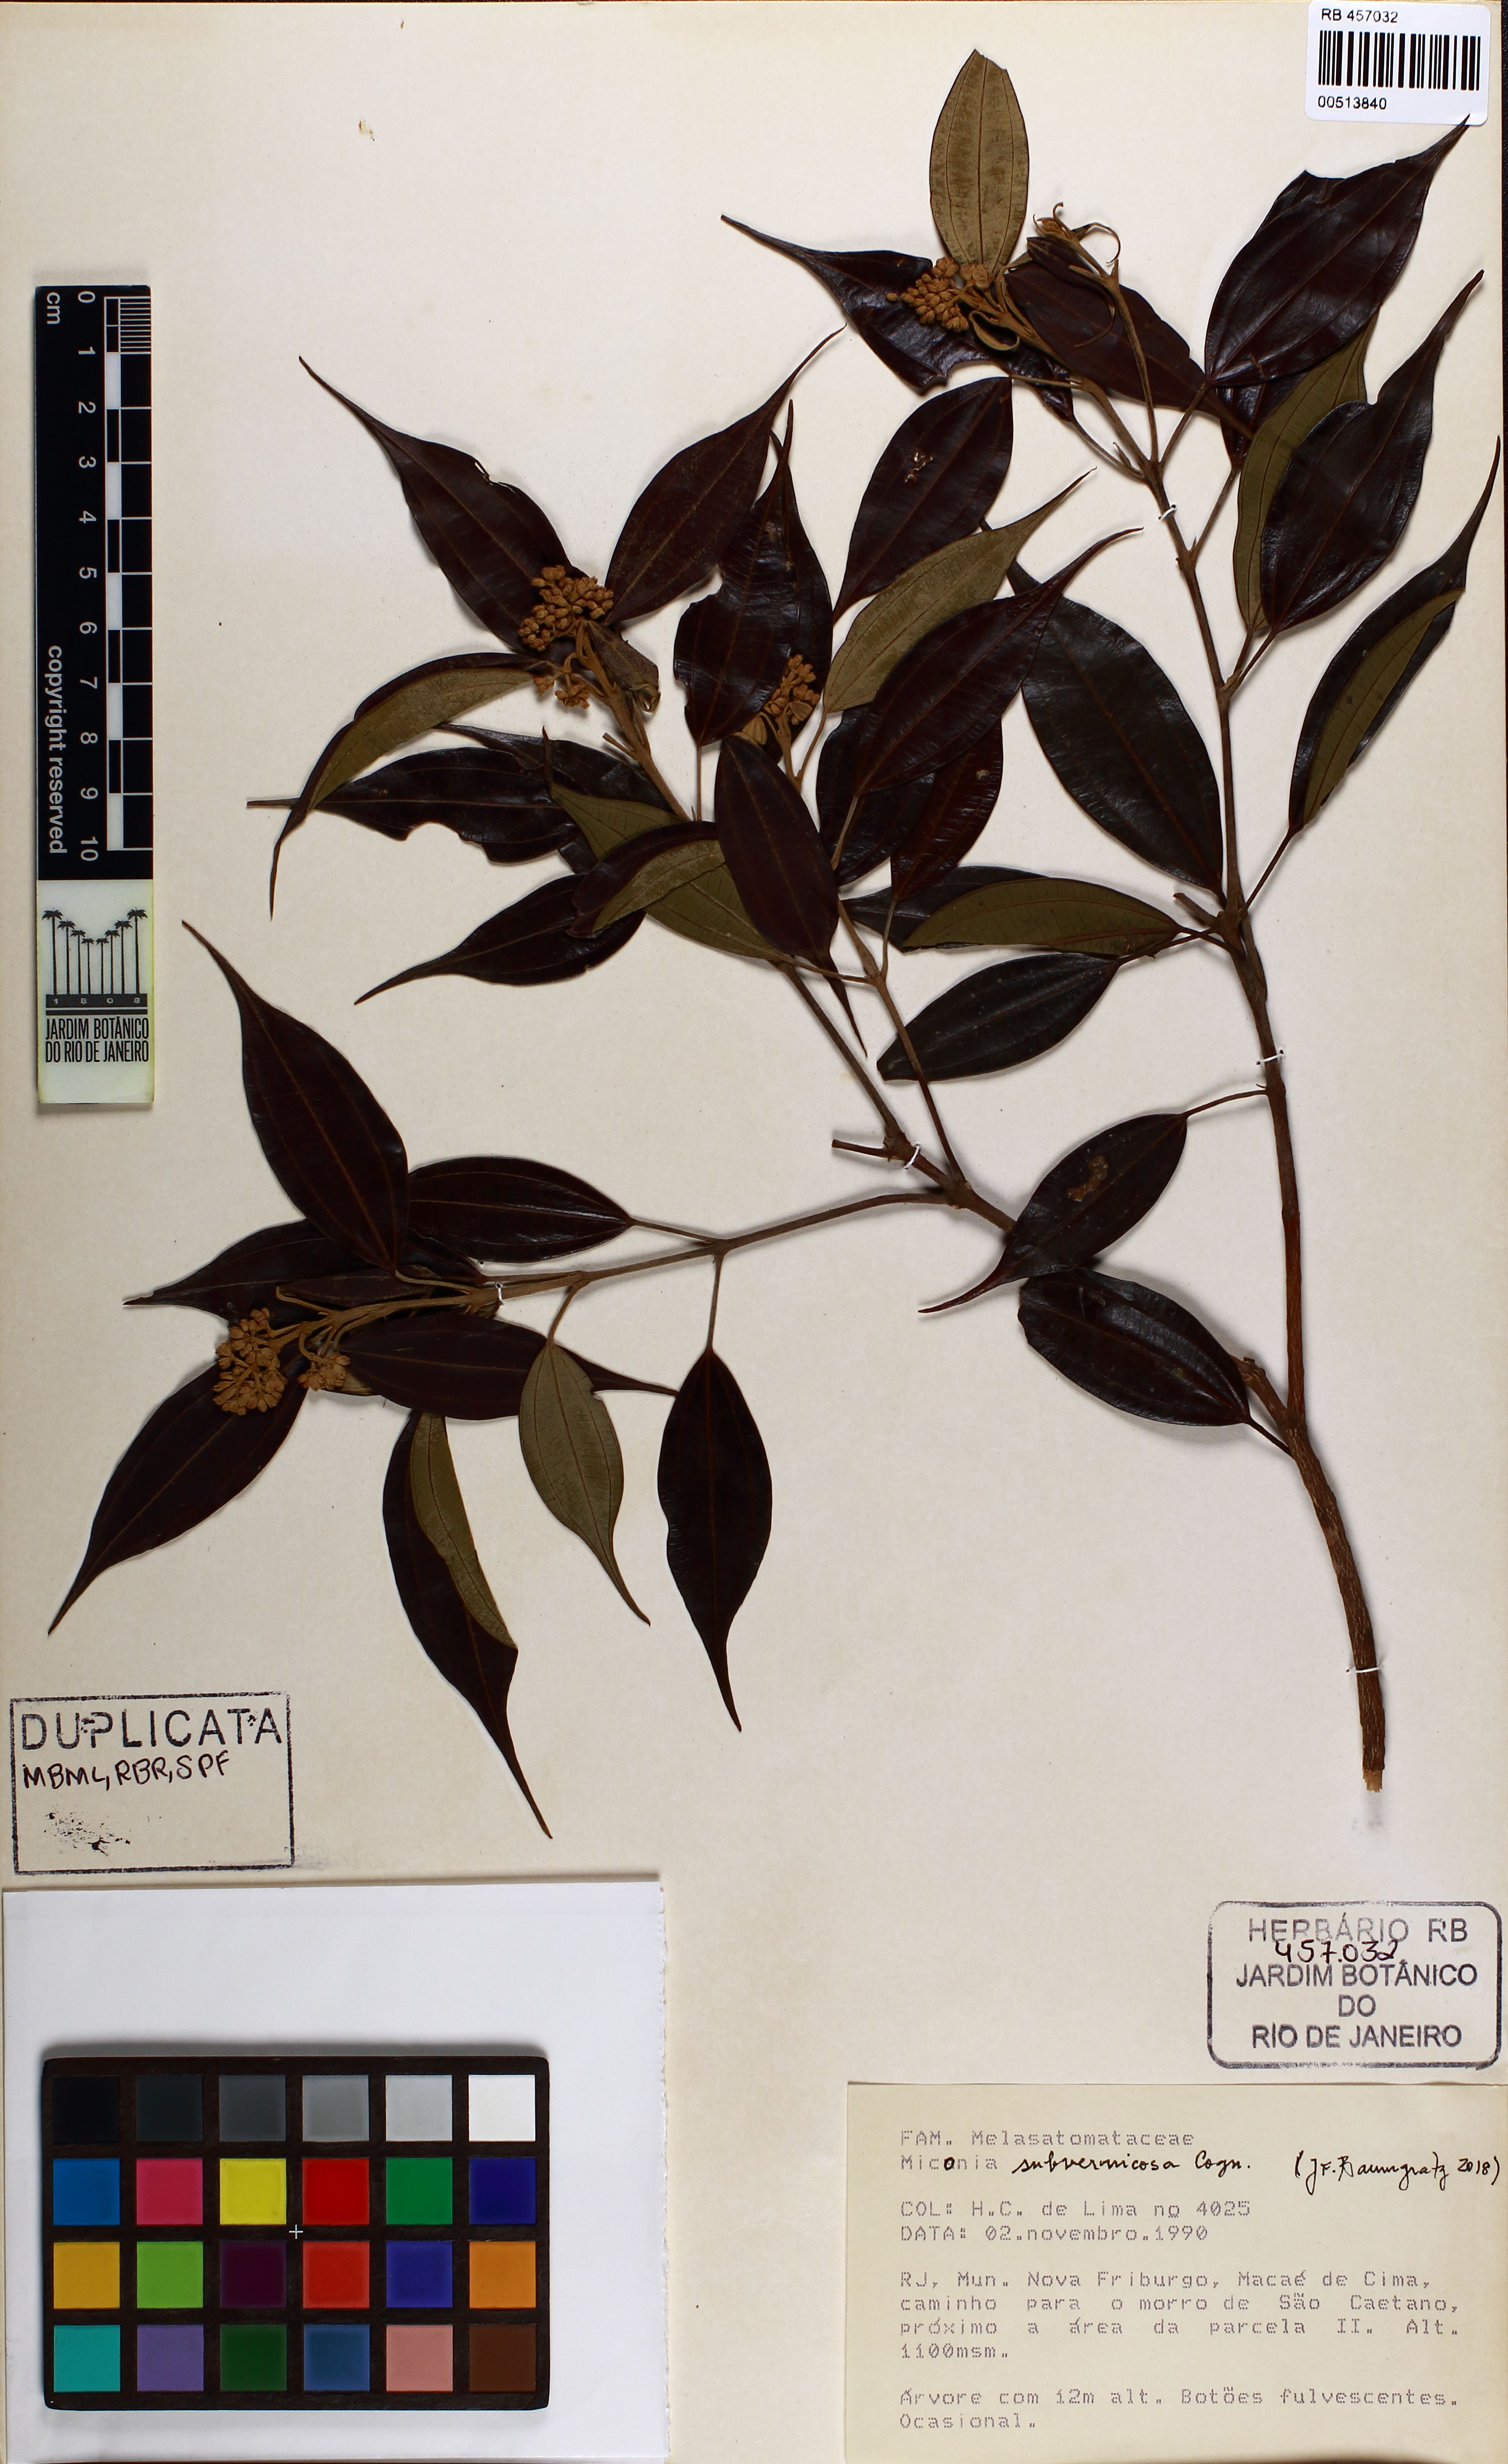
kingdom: Plantae
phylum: Tracheophyta
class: Magnoliopsida
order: Myrtales
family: Melastomataceae
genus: Miconia
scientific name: Miconia subvernicosa
